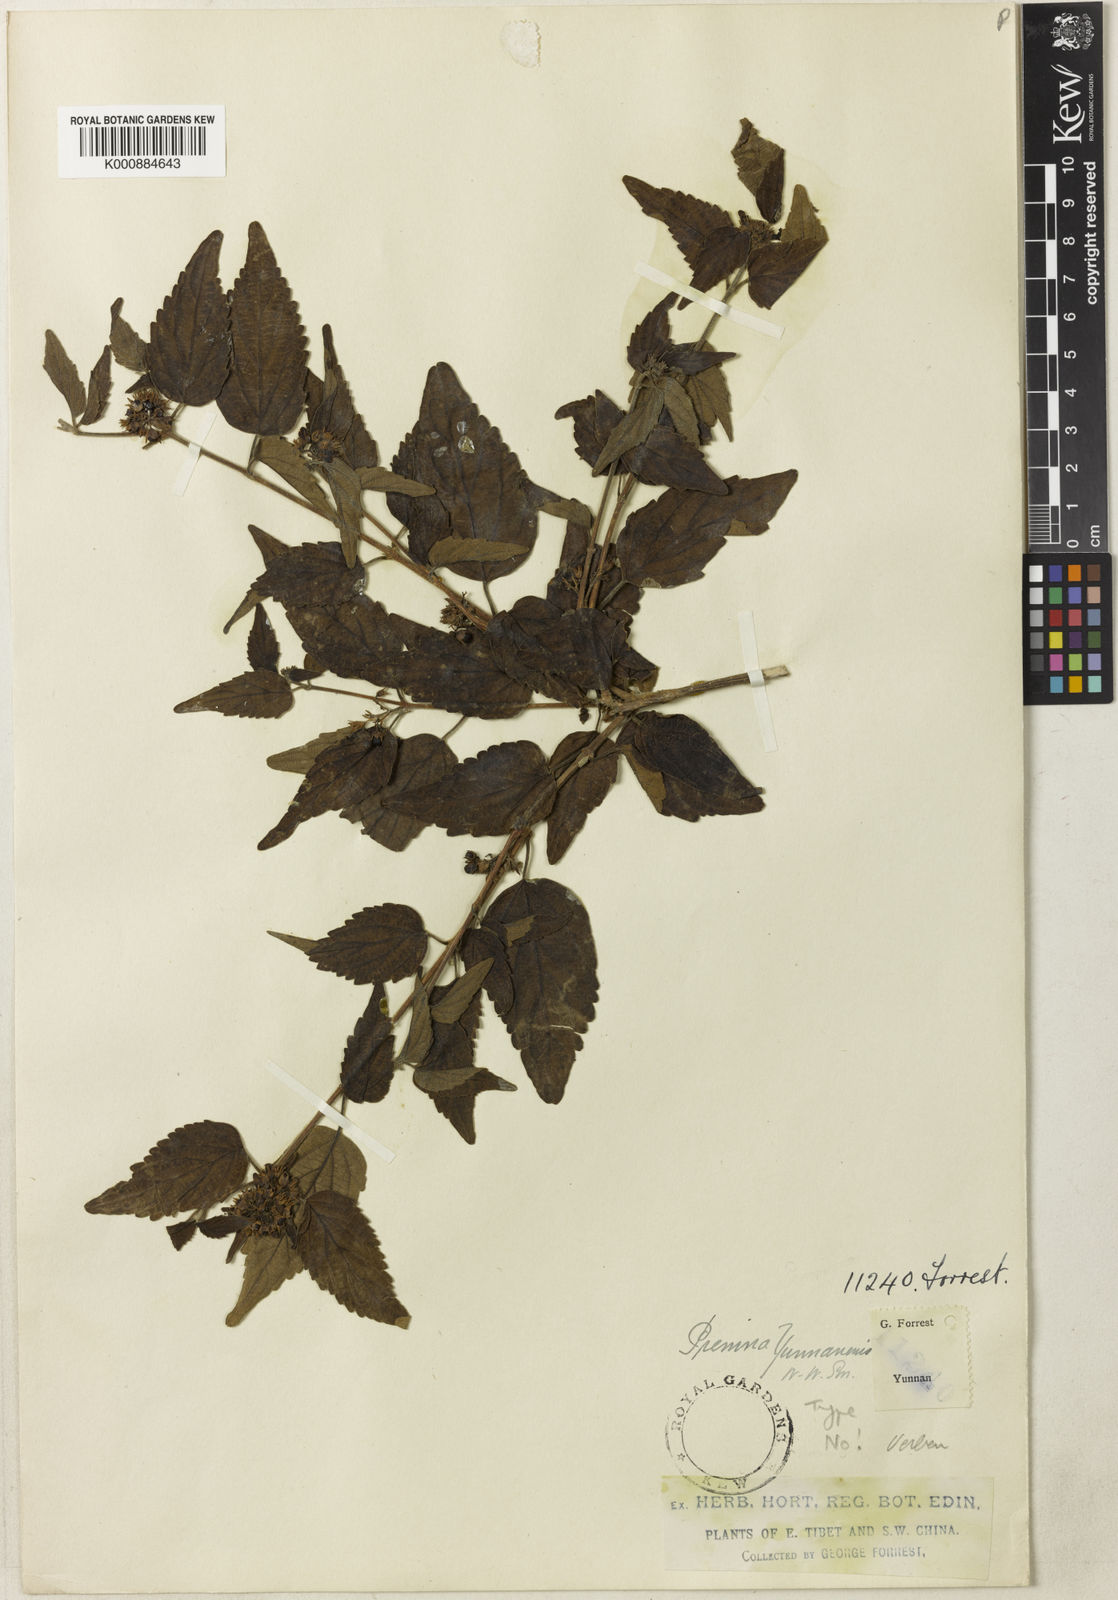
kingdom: Plantae
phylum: Tracheophyta
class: Magnoliopsida
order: Lamiales
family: Lamiaceae
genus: Premna
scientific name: Premna acutata
